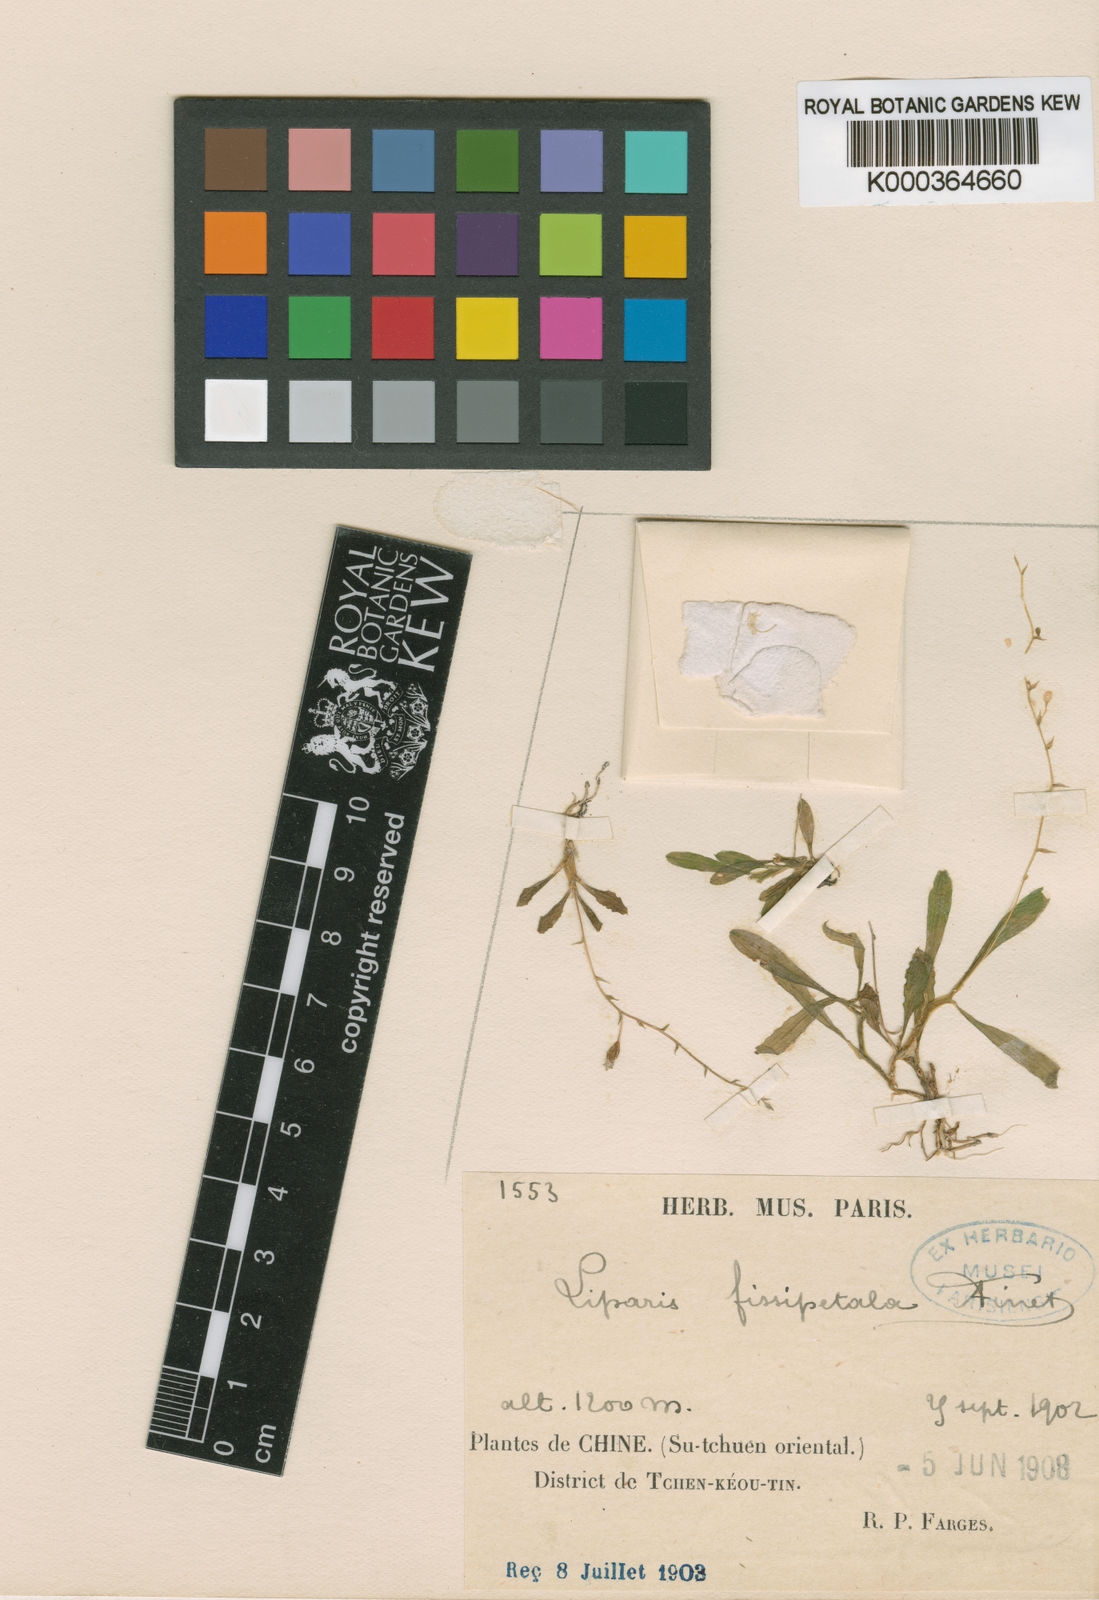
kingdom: Plantae
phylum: Tracheophyta
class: Liliopsida
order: Asparagales
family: Orchidaceae
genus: Liparis
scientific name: Liparis fissipetala
